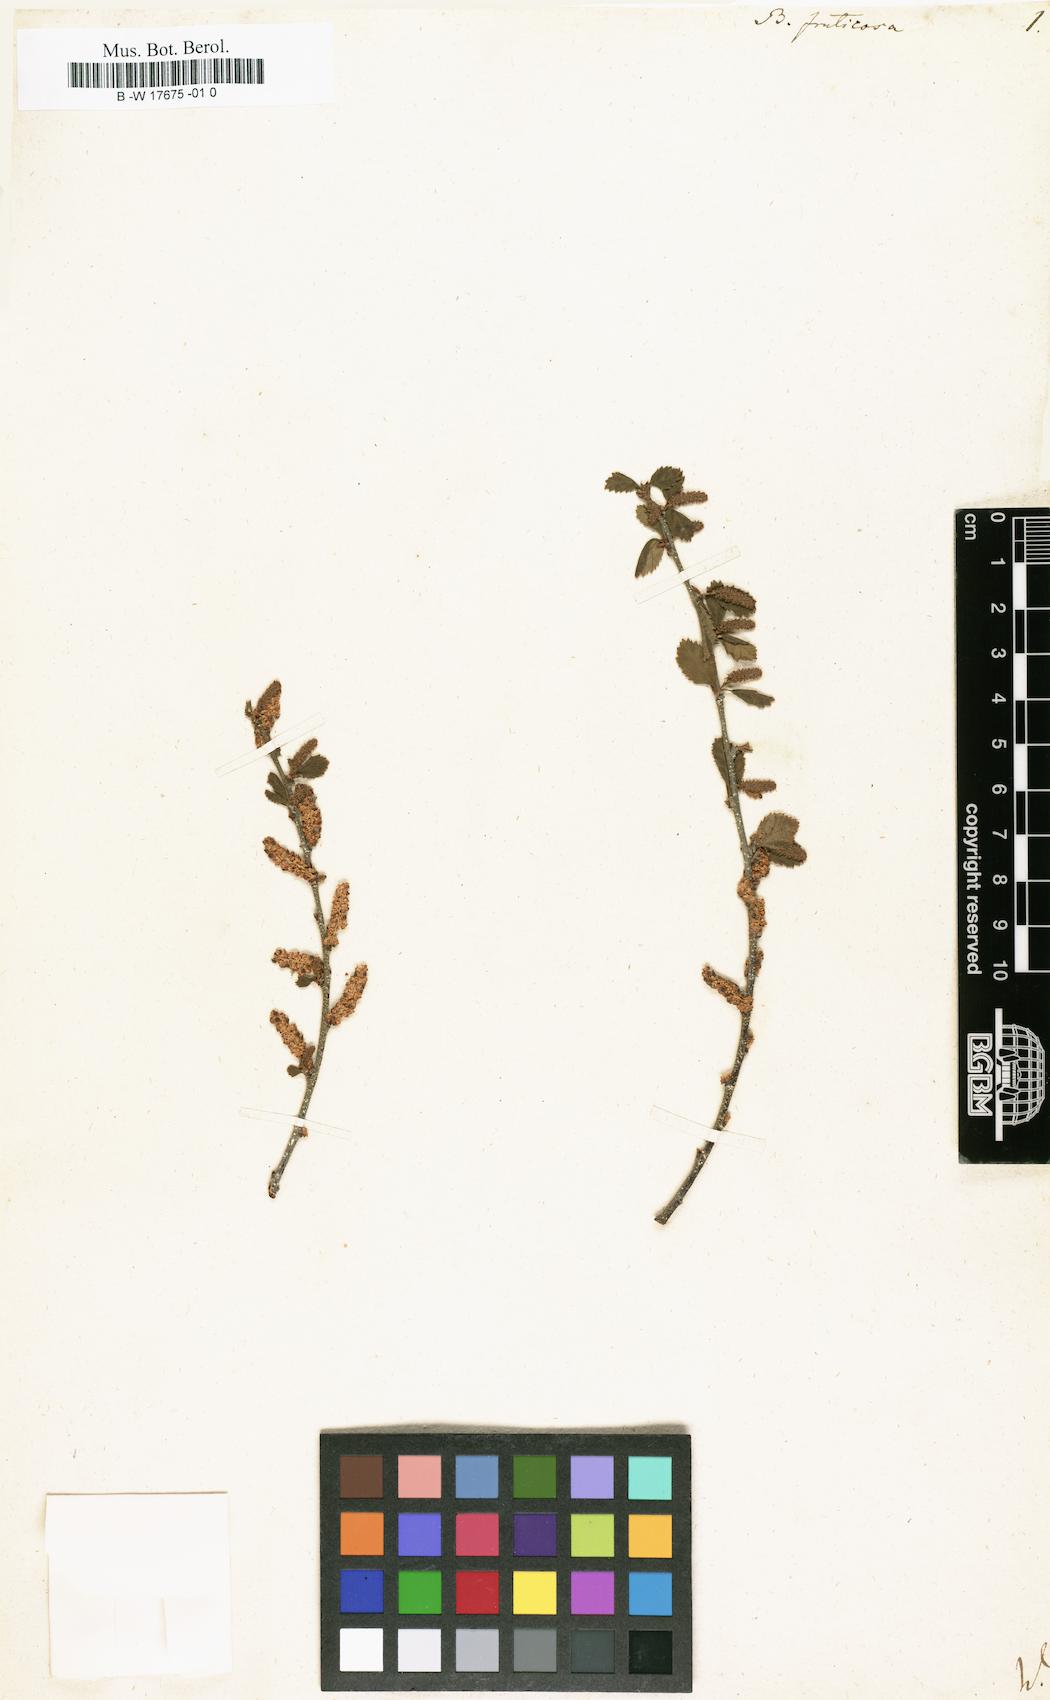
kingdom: Plantae
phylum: Tracheophyta
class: Magnoliopsida
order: Fagales
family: Betulaceae
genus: Betula
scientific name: Betula fruticosa
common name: Japanese bog birch
